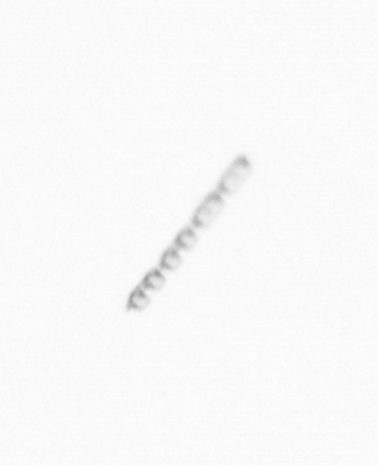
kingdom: Chromista
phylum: Ochrophyta
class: Bacillariophyceae
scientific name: Bacillariophyceae
